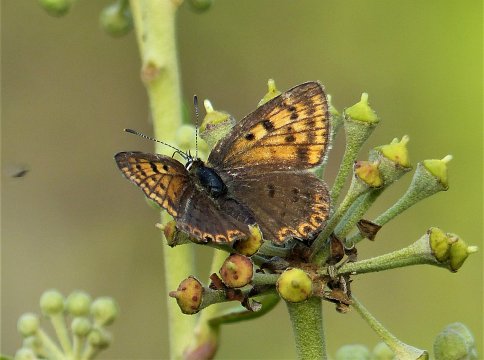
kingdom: Animalia
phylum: Arthropoda
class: Insecta
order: Lepidoptera
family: Lycaenidae
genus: Loweia
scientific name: Loweia tityrus
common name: Sooty Copper
